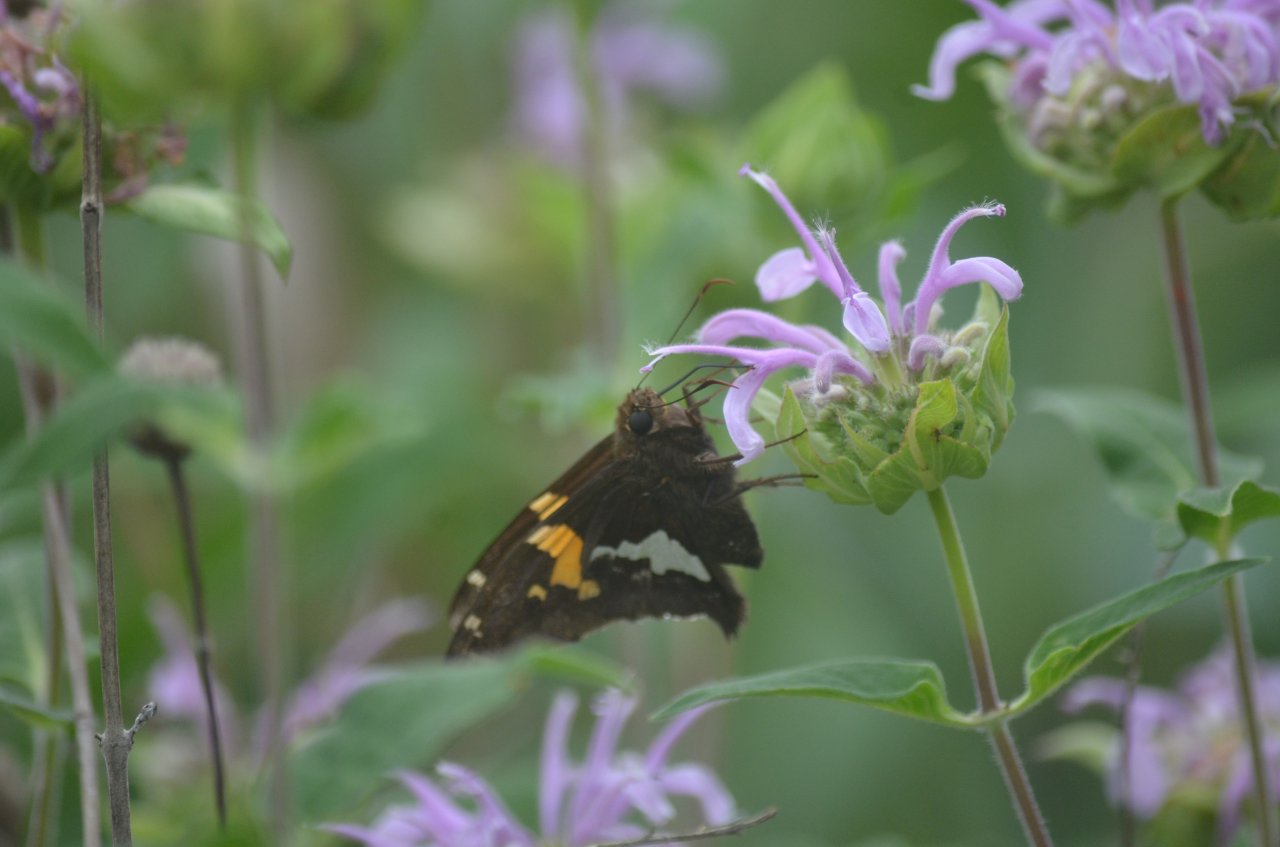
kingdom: Animalia
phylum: Arthropoda
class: Insecta
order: Lepidoptera
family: Hesperiidae
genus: Epargyreus
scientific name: Epargyreus clarus
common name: Silver-spotted Skipper
